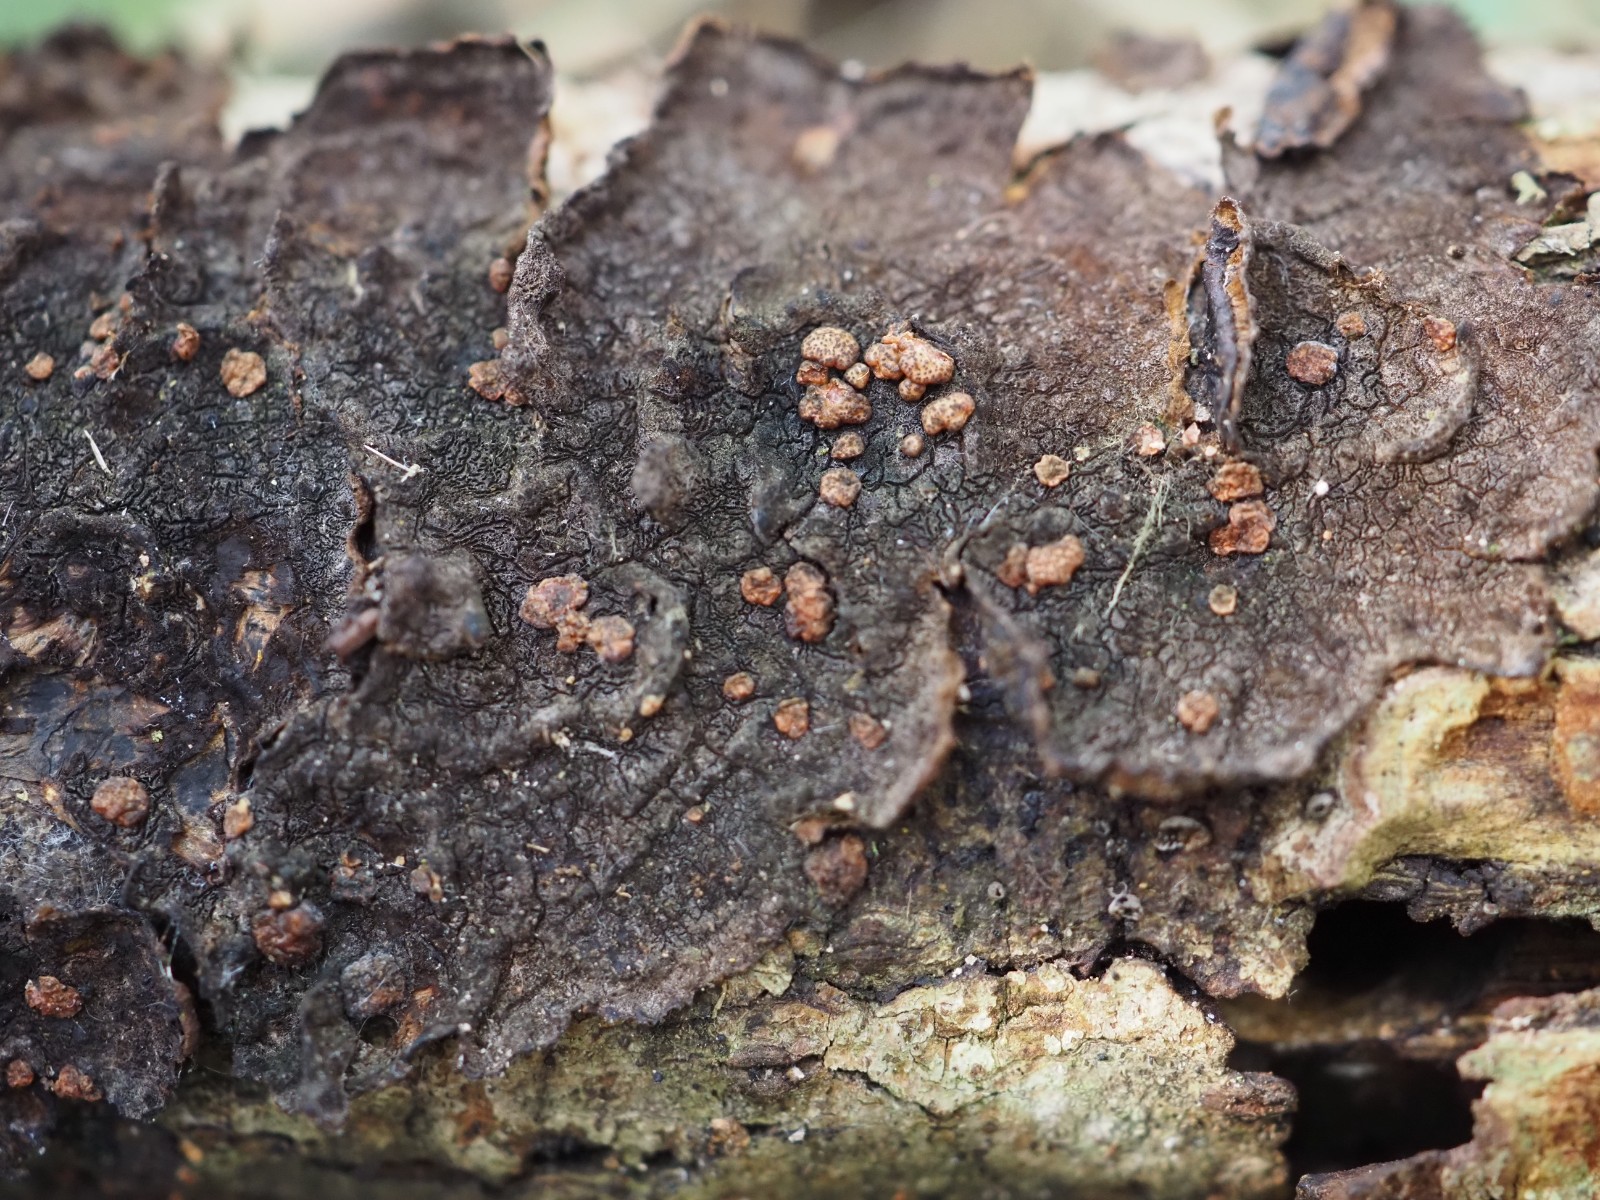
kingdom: Fungi
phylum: Ascomycota
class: Sordariomycetes
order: Hypocreales
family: Hypocreaceae
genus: Trichoderma
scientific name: Trichoderma estonicum
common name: ruslæder-kødkerne
